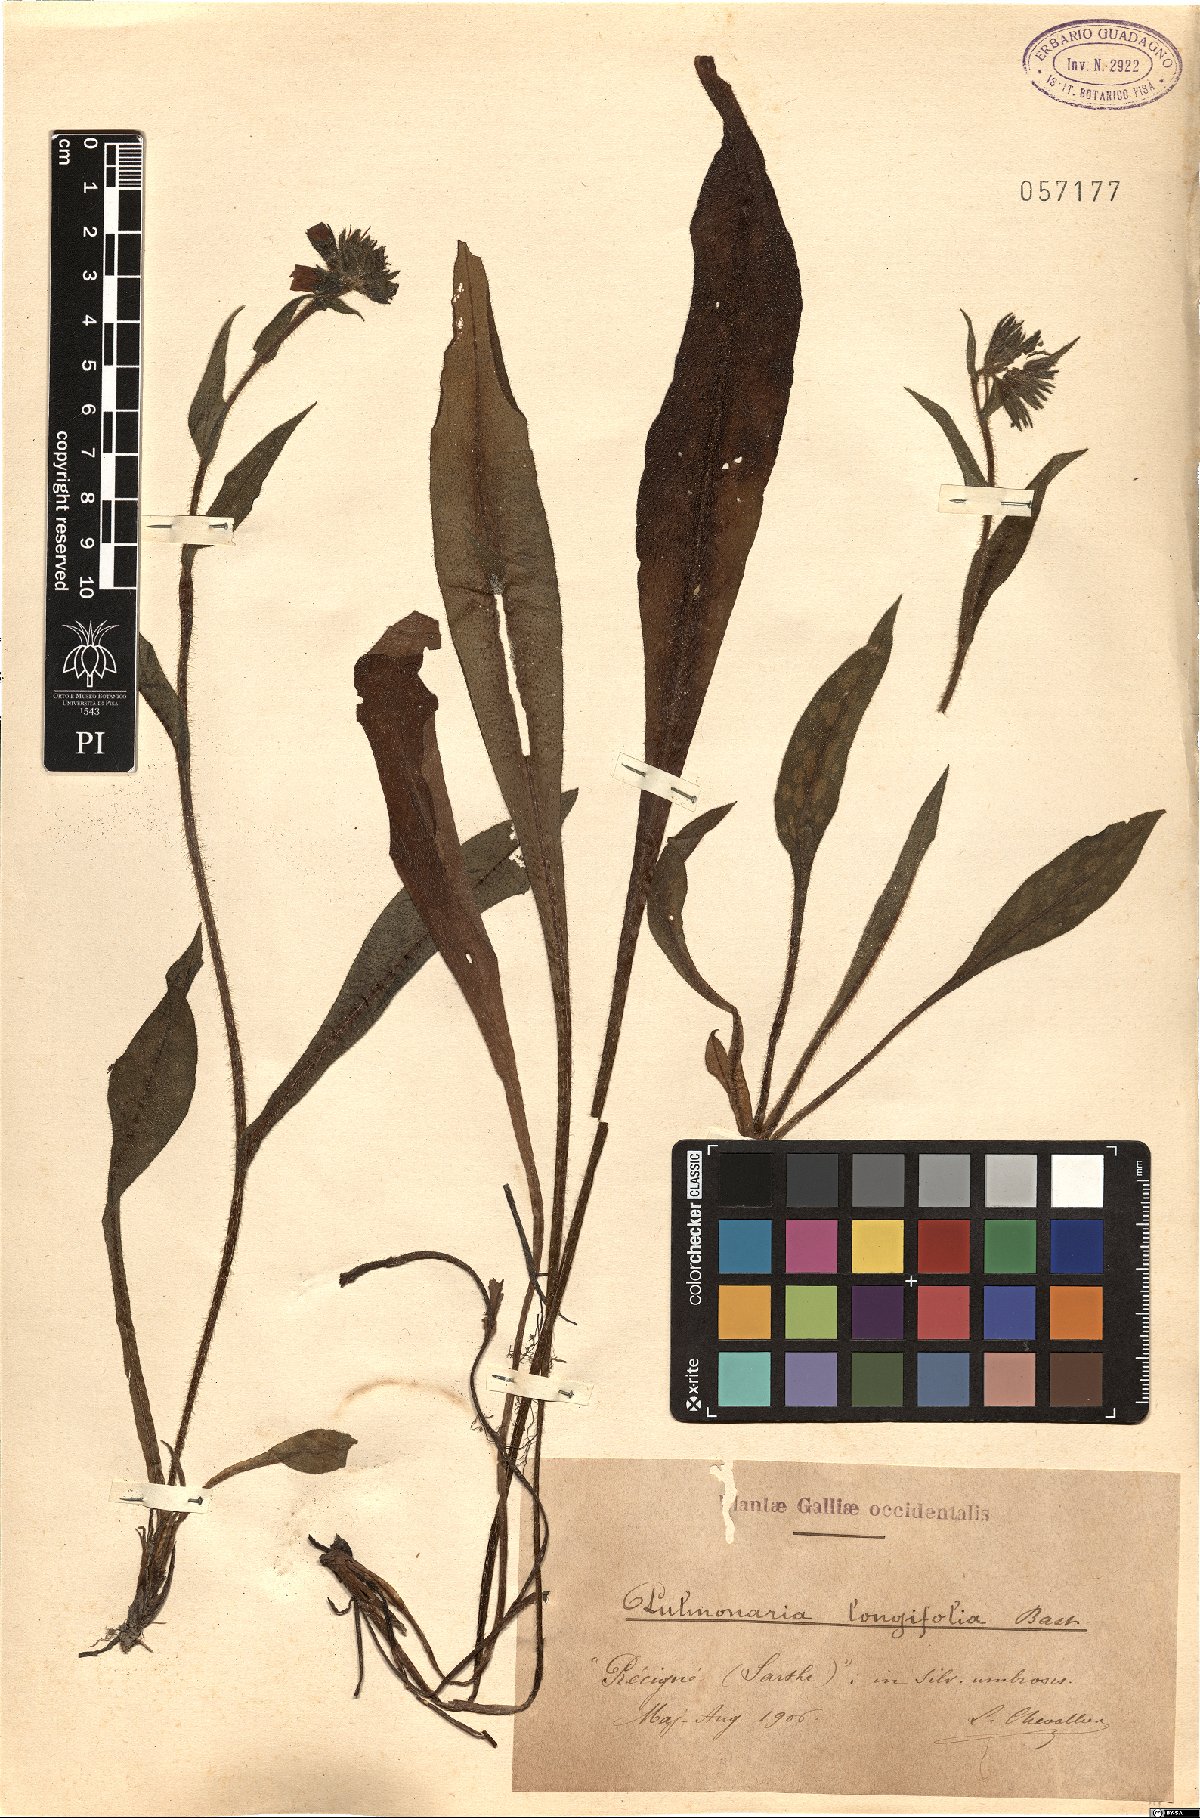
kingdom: Plantae
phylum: Tracheophyta
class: Magnoliopsida
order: Boraginales
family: Boraginaceae
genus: Pulmonaria
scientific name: Pulmonaria longifolia
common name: Narrow-leaved lungwort
